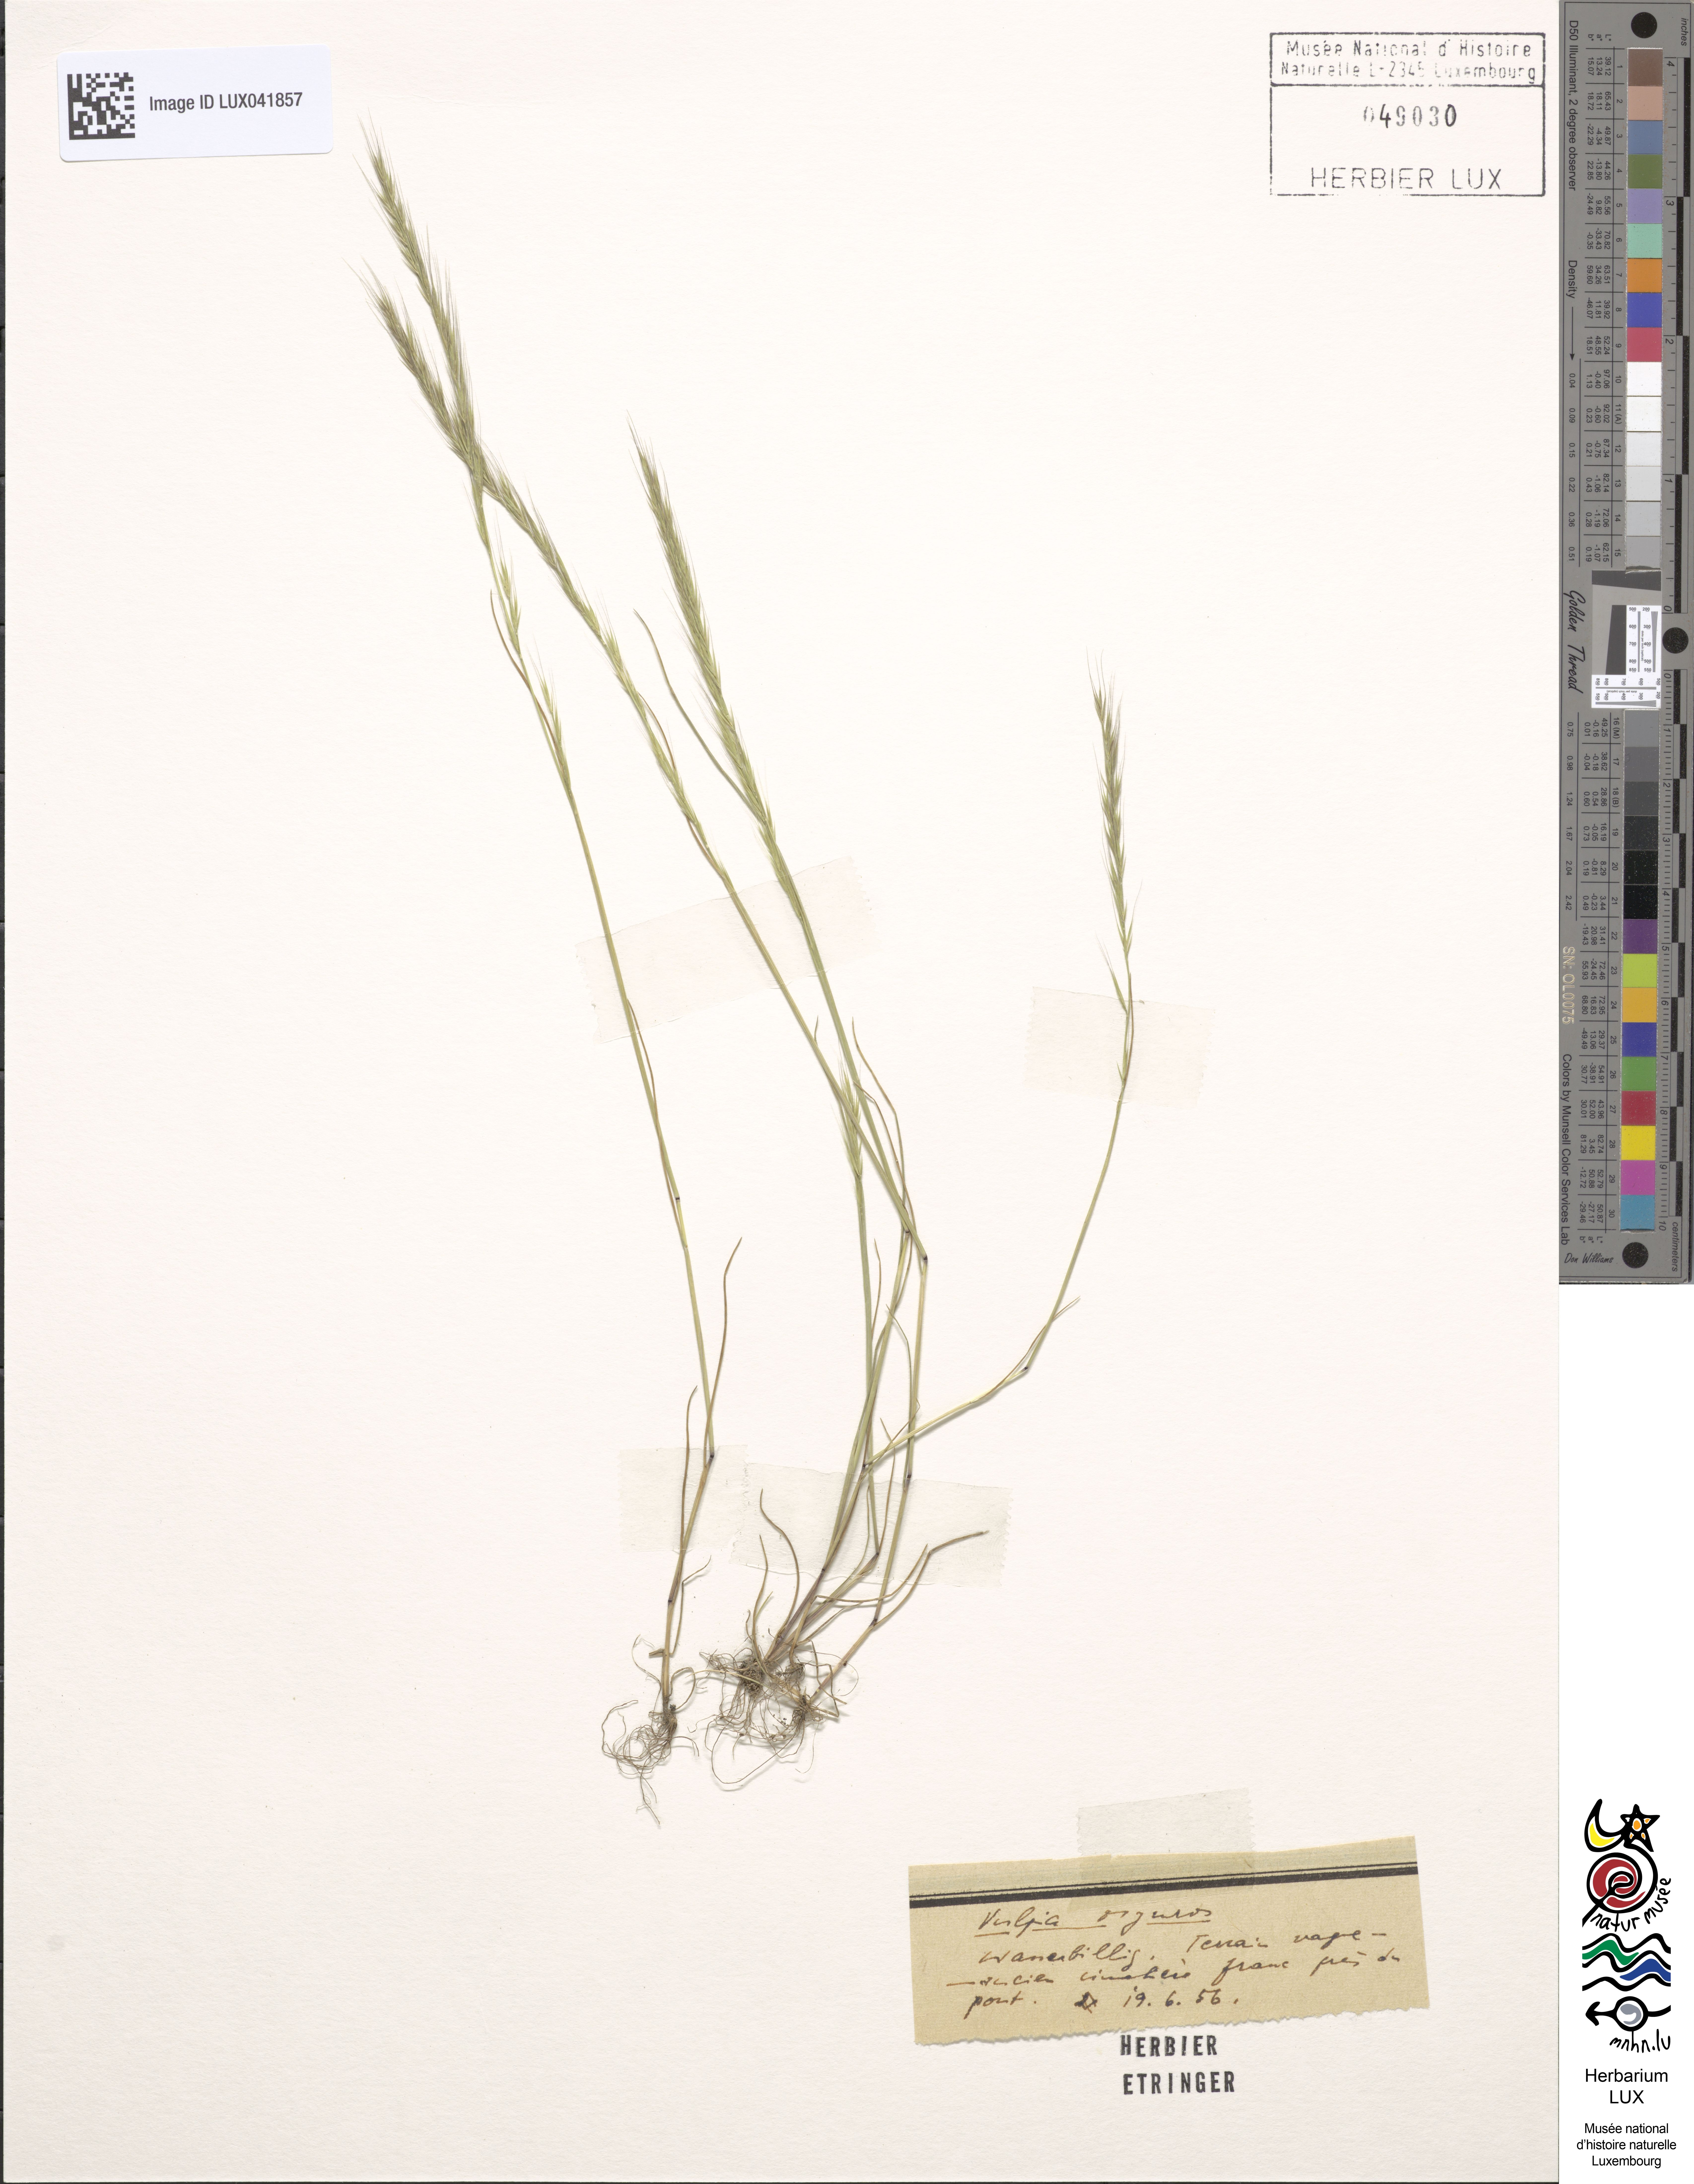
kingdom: Plantae
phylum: Tracheophyta
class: Liliopsida
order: Poales
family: Poaceae
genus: Festuca
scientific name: Festuca myuros
